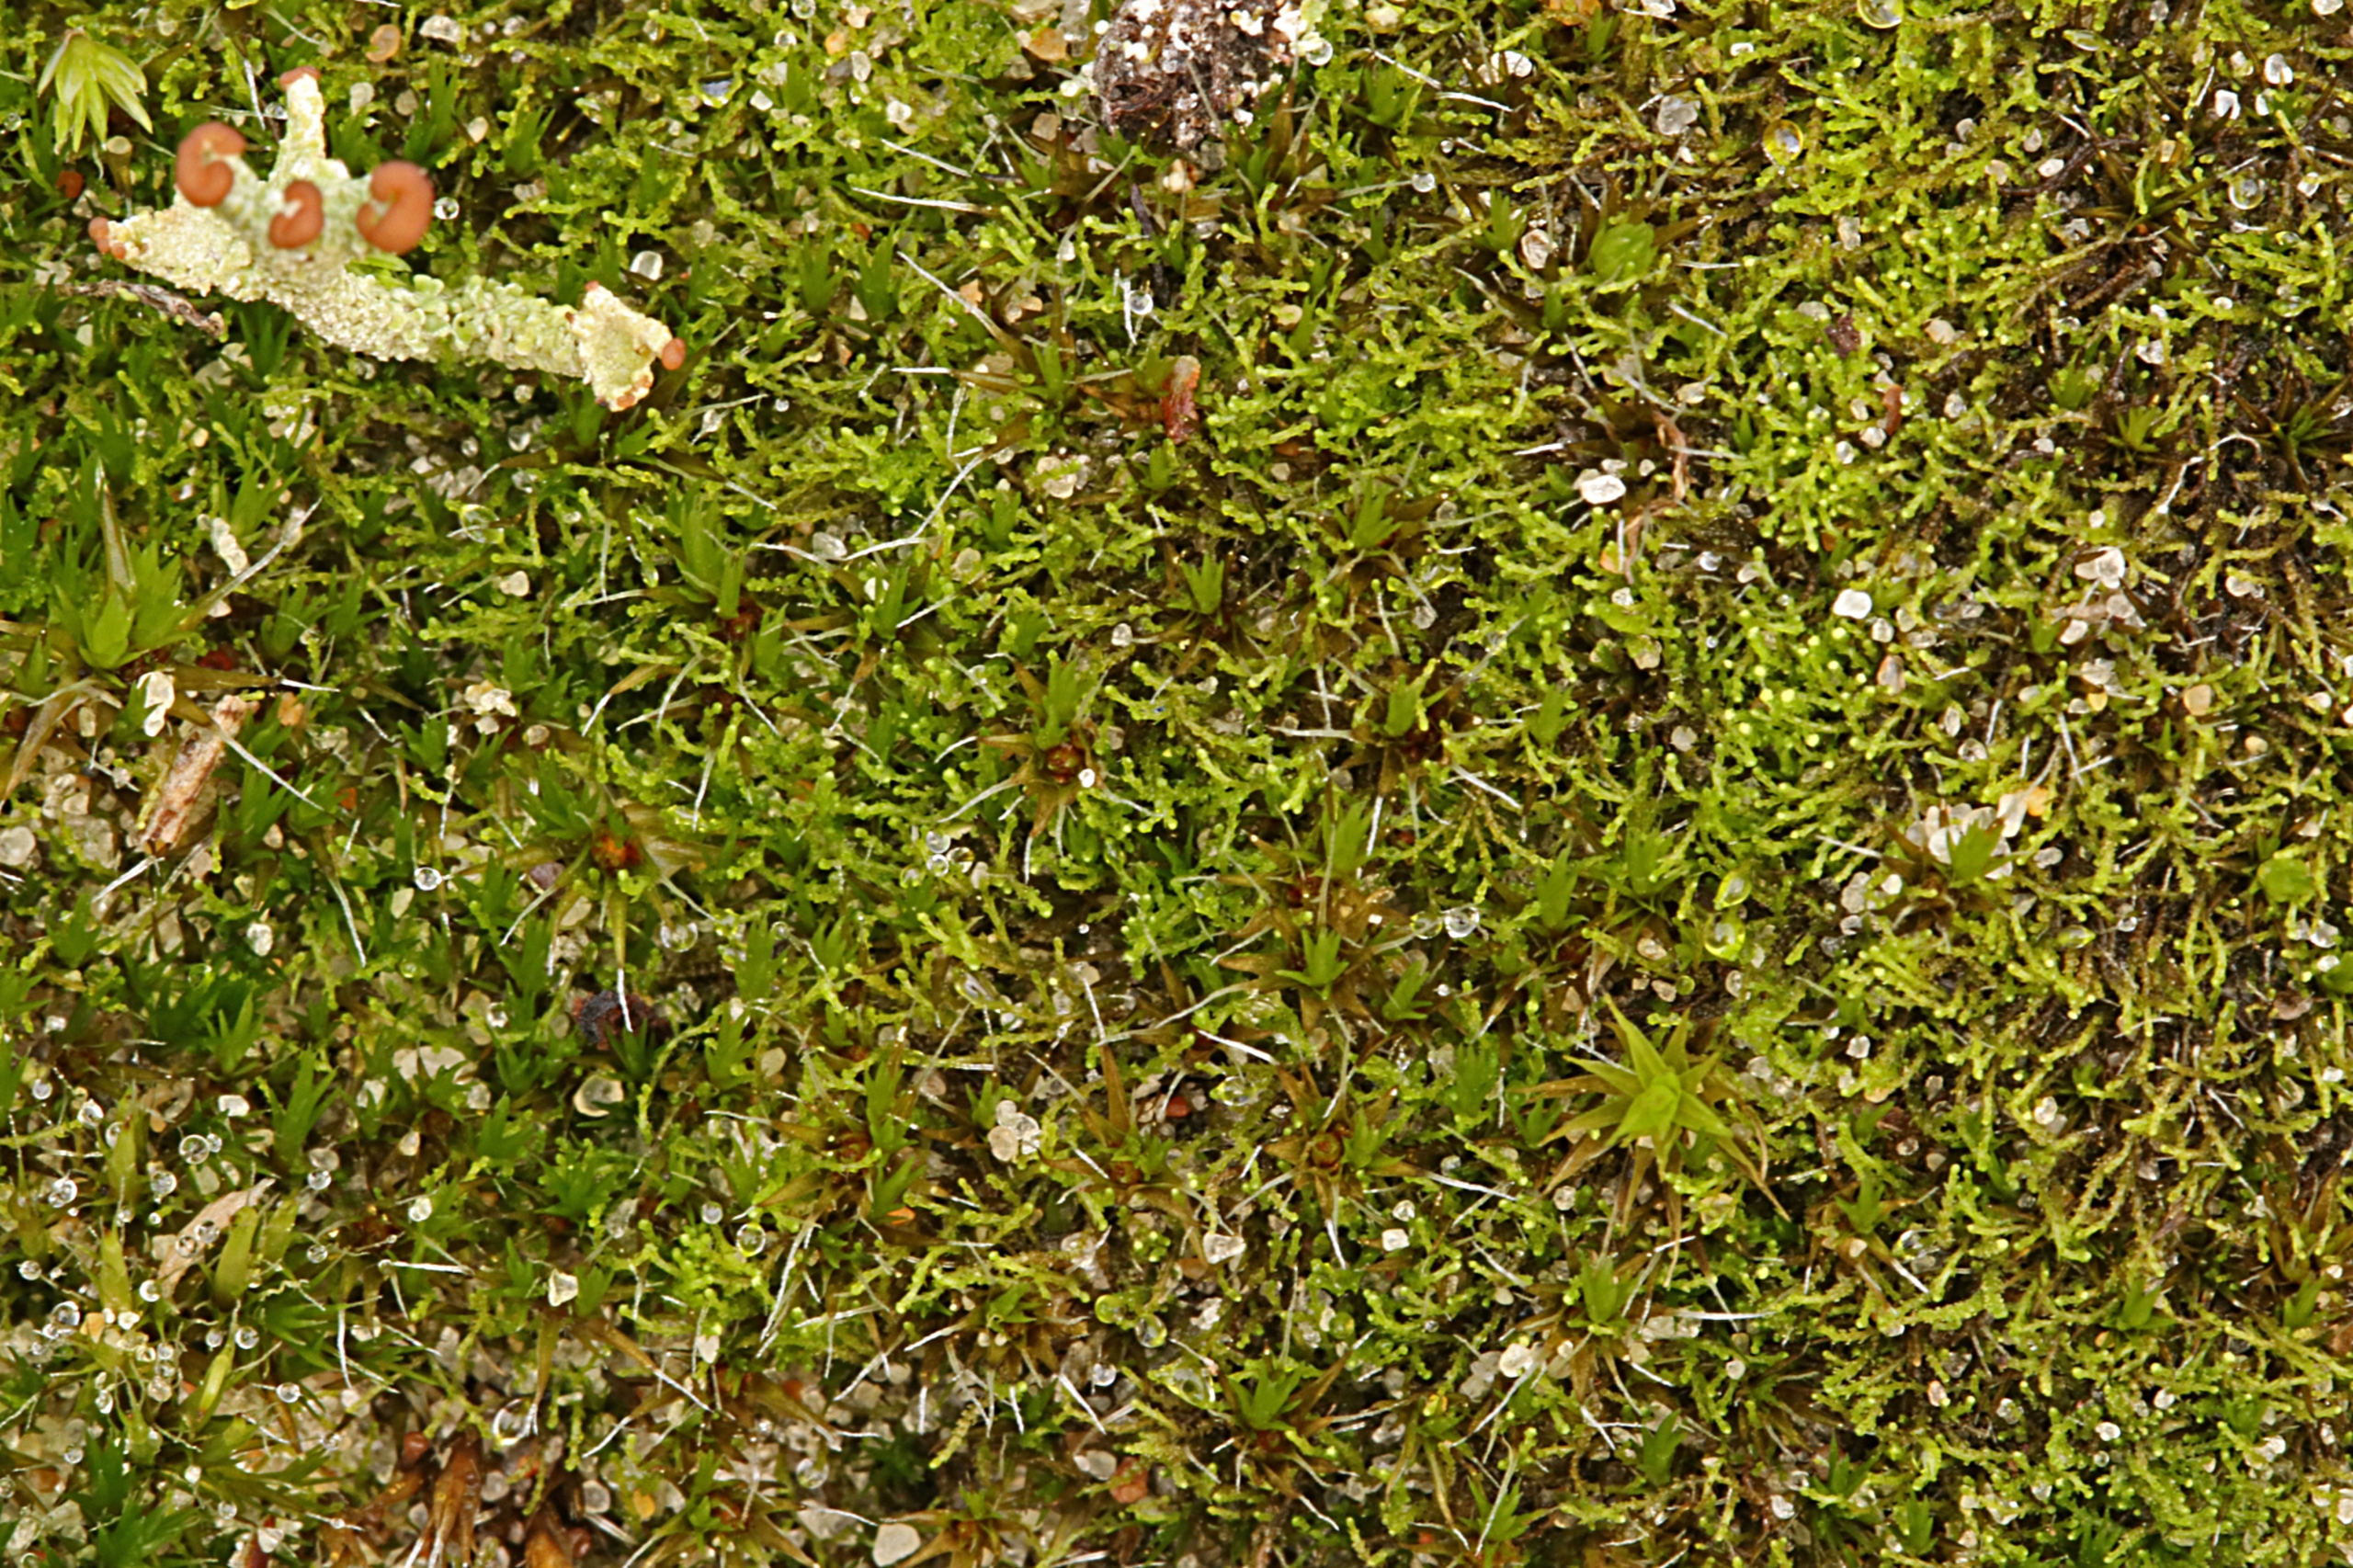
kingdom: Plantae
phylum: Marchantiophyta
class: Jungermanniopsida
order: Jungermanniales
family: Cephaloziellaceae
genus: Cephaloziella
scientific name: Cephaloziella divaricata
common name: Mørk dværgtråd
